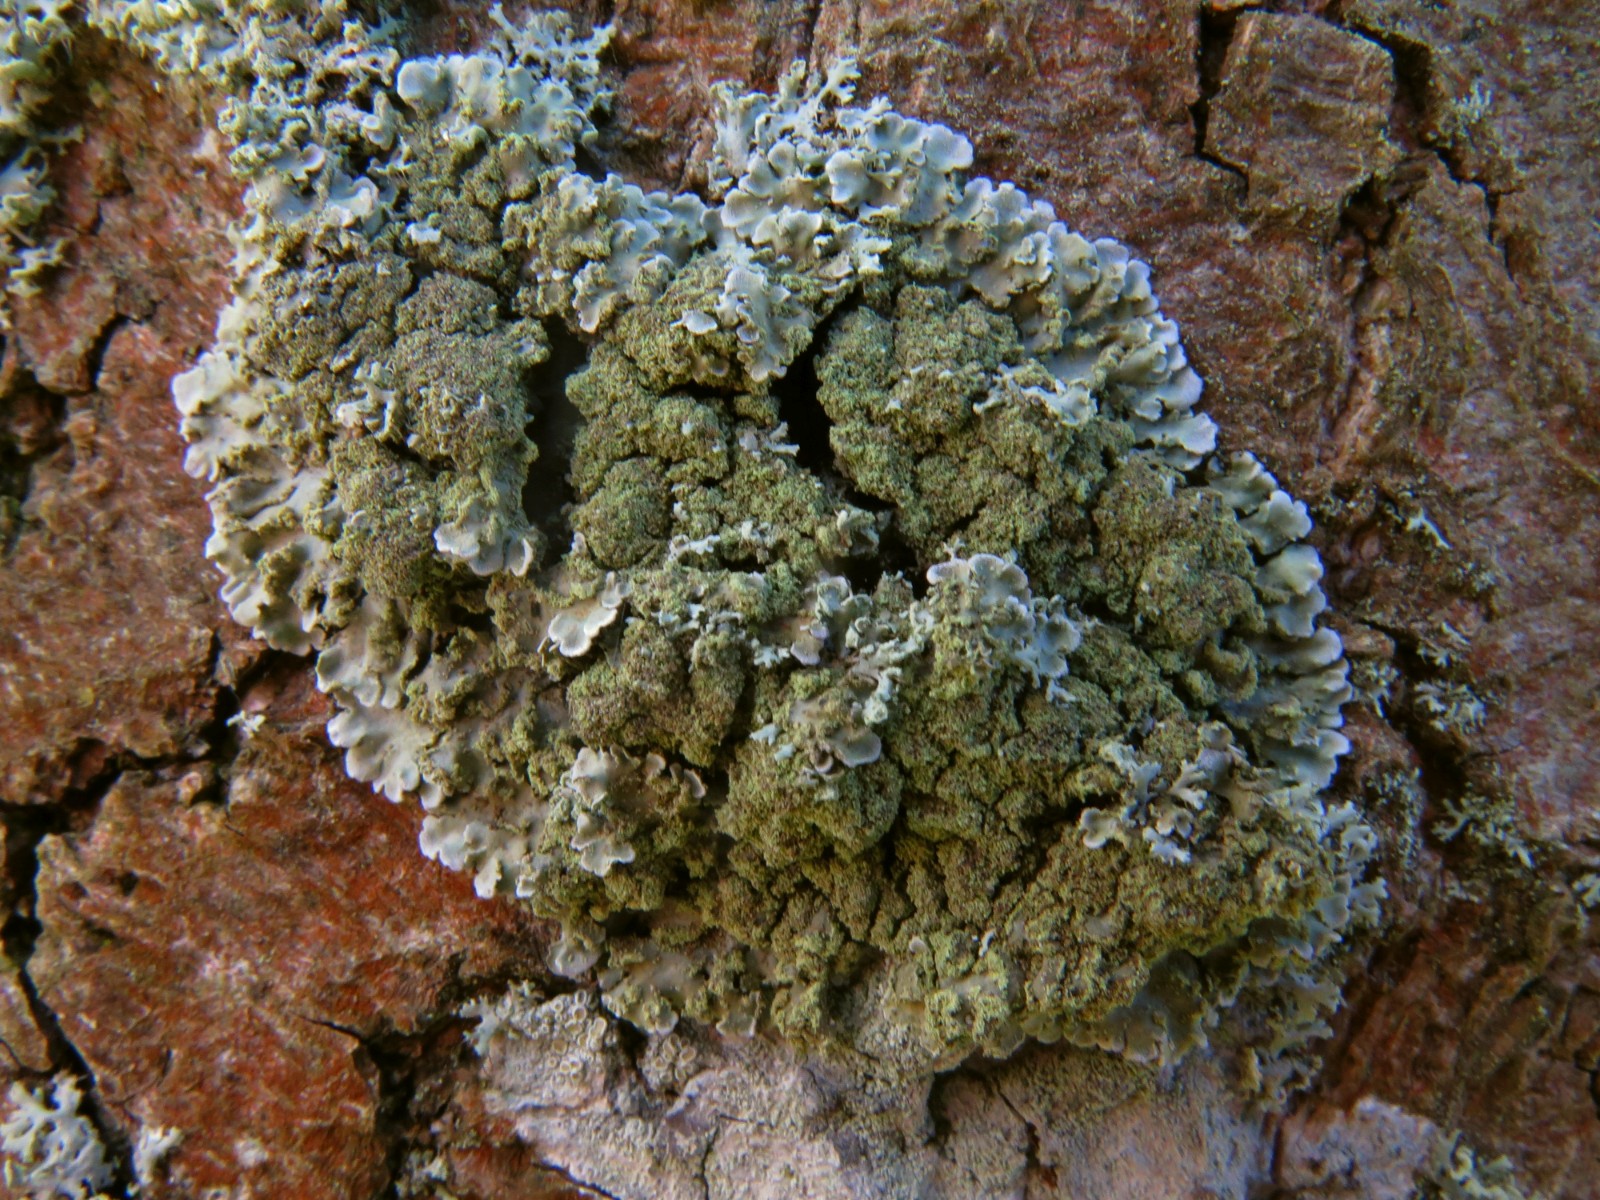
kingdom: Fungi
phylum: Ascomycota
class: Lecanoromycetes
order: Caliciales
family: Physciaceae
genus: Physconia
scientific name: Physconia enteroxantha
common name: grynet dugrosetlav
